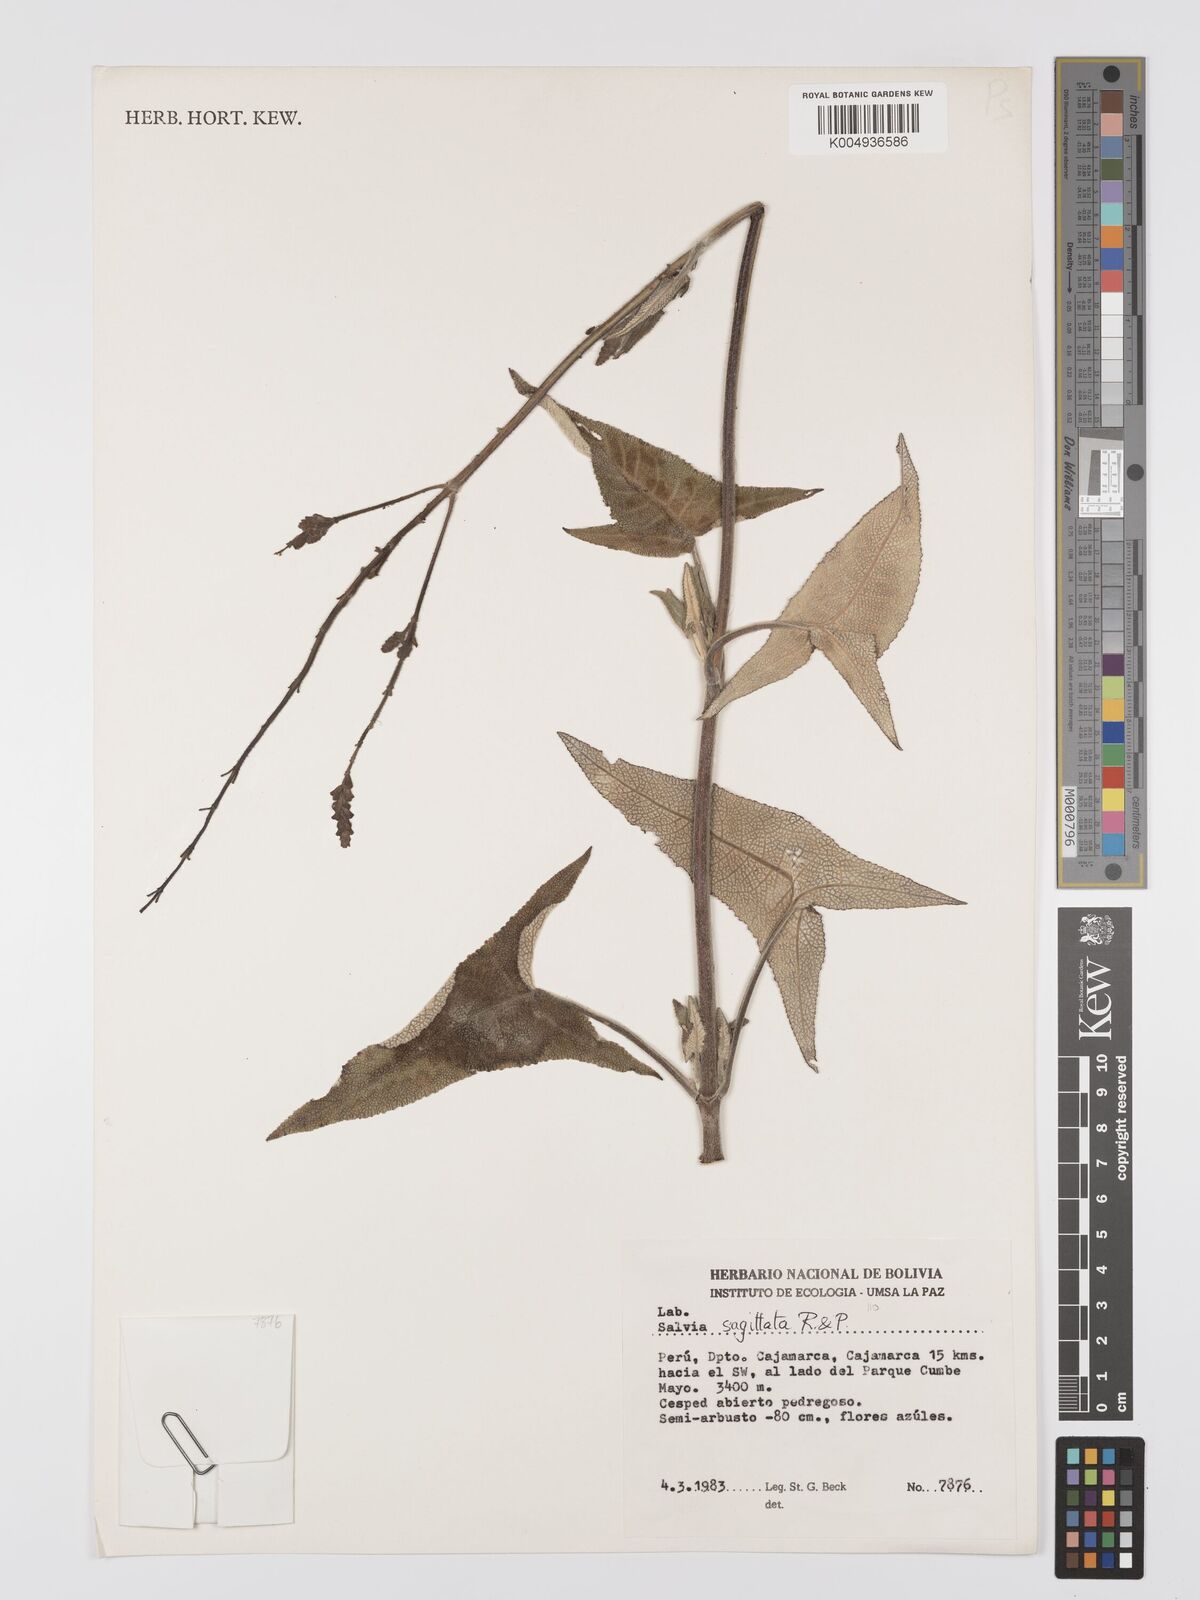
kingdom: Plantae
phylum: Tracheophyta
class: Magnoliopsida
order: Lamiales
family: Lamiaceae
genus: Salvia
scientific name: Salvia sagittata
